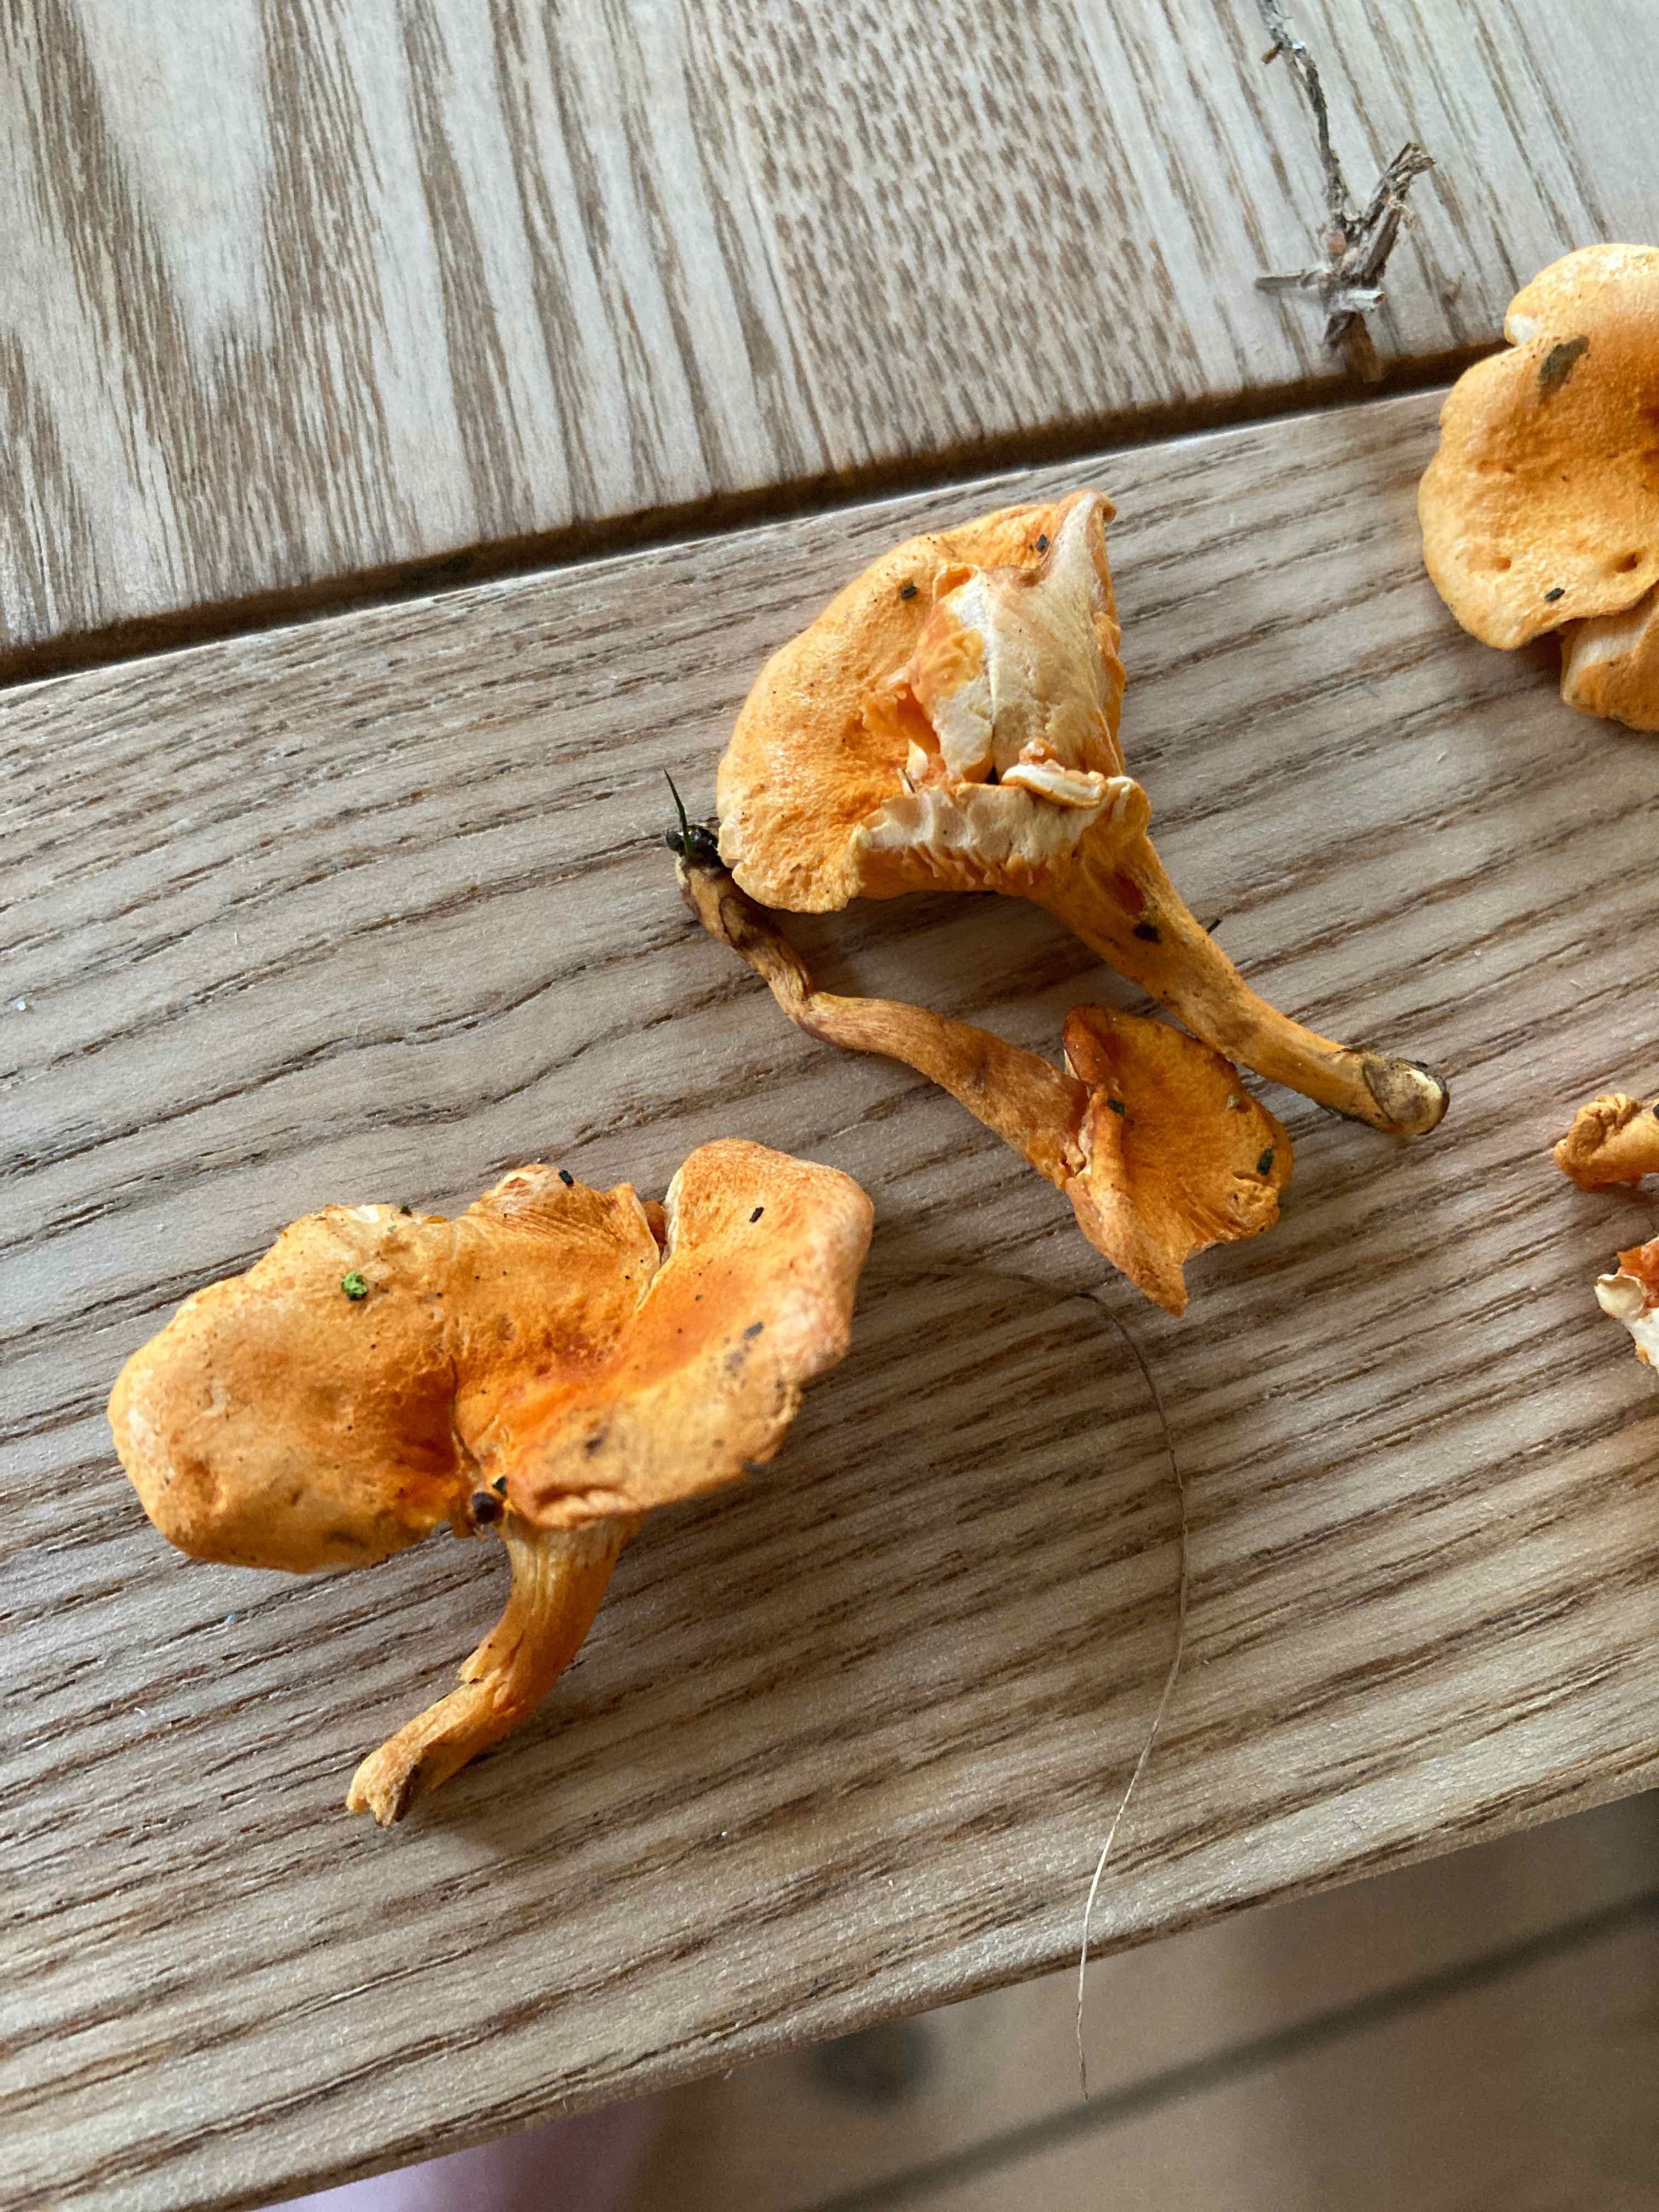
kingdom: Fungi
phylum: Basidiomycota
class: Agaricomycetes
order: Boletales
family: Hygrophoropsidaceae
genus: Hygrophoropsis
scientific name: Hygrophoropsis rufa
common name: brunfiltet orangekantarel
